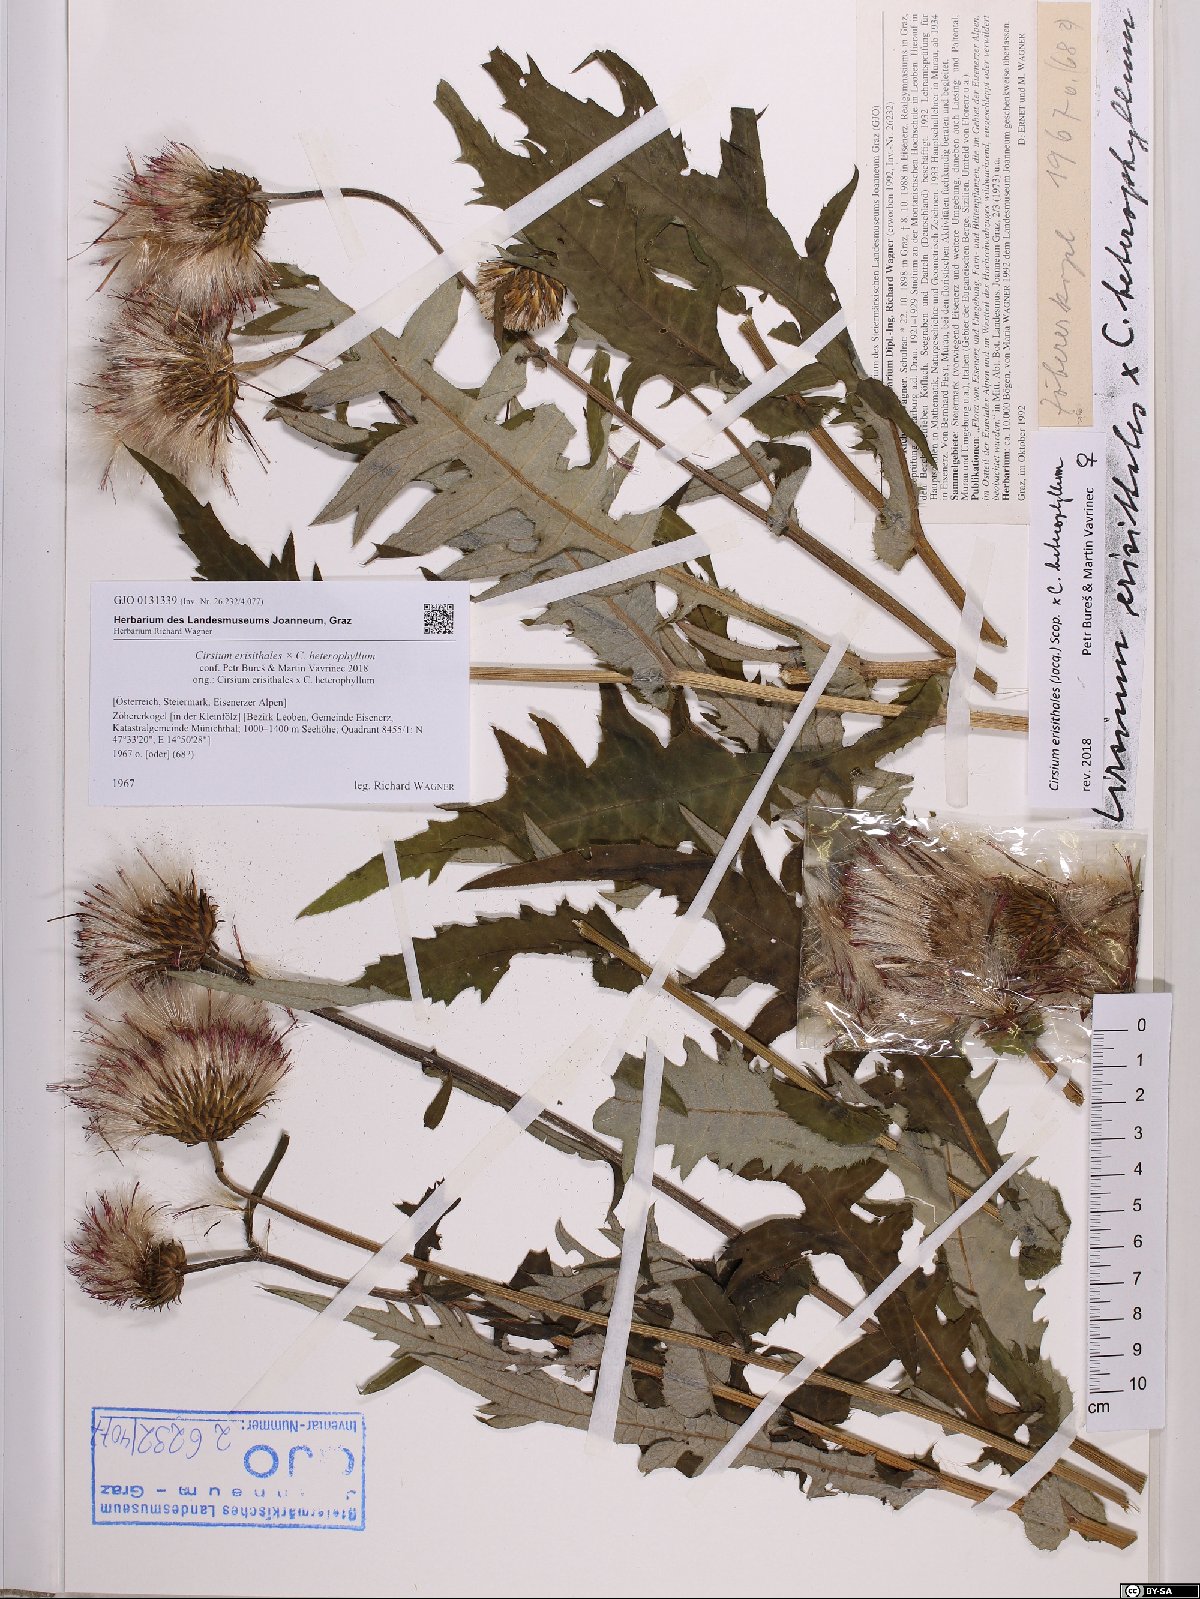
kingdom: Plantae
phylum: Tracheophyta
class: Magnoliopsida
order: Asterales
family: Asteraceae
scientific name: Asteraceae
